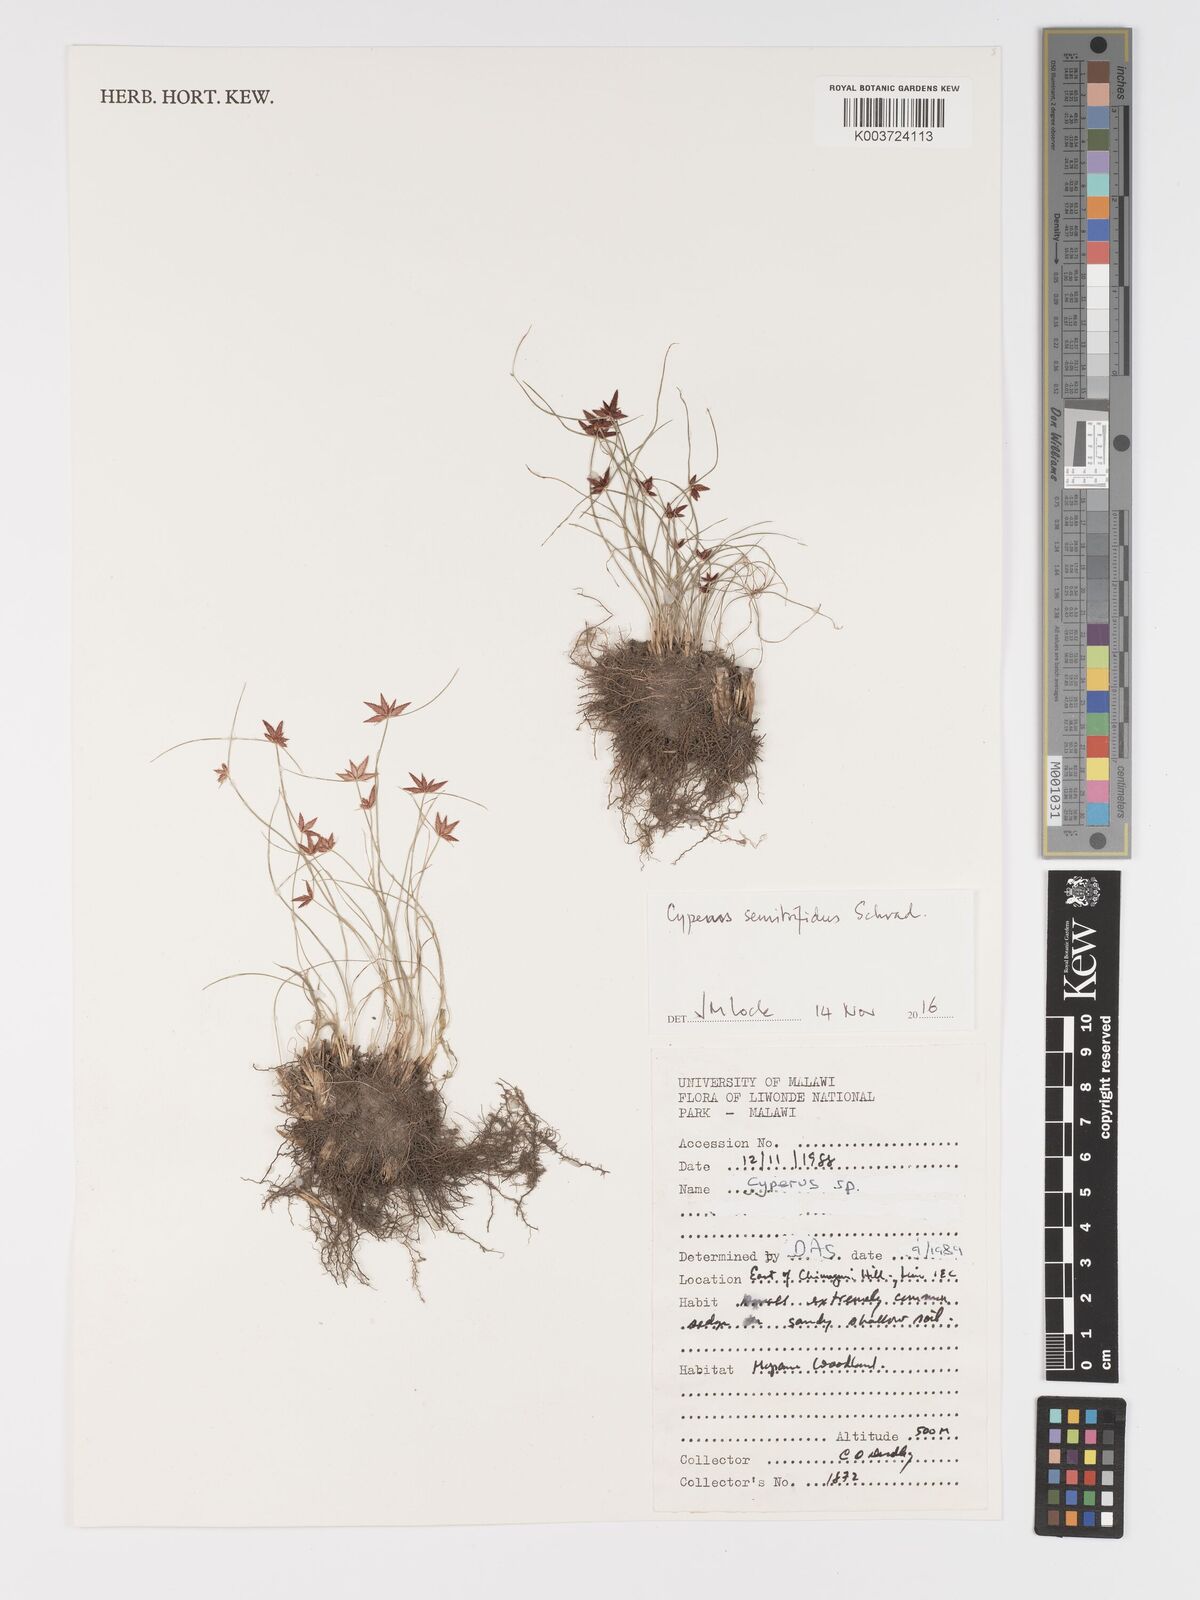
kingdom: Plantae
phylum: Tracheophyta
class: Liliopsida
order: Poales
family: Cyperaceae
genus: Cyperus
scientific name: Cyperus semitrifidus
